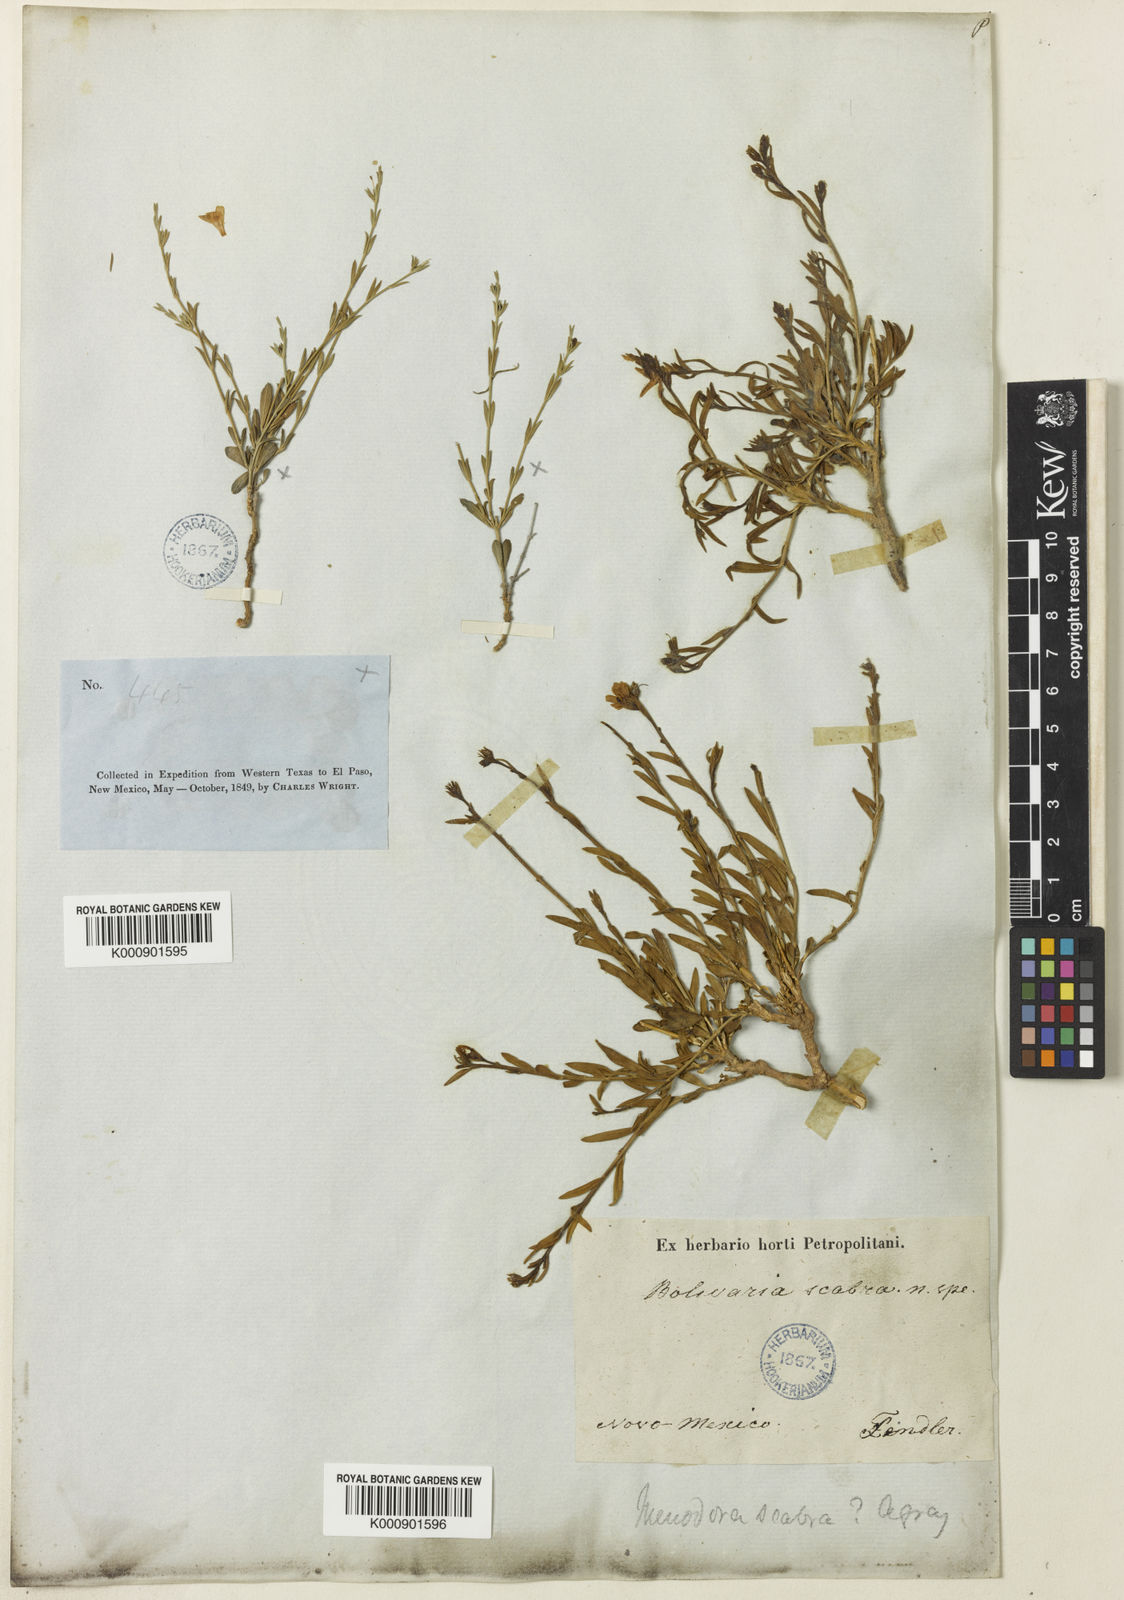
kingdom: Plantae
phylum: Tracheophyta
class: Magnoliopsida
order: Lamiales
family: Oleaceae
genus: Menodora
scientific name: Menodora scabra
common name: Rough menodora
